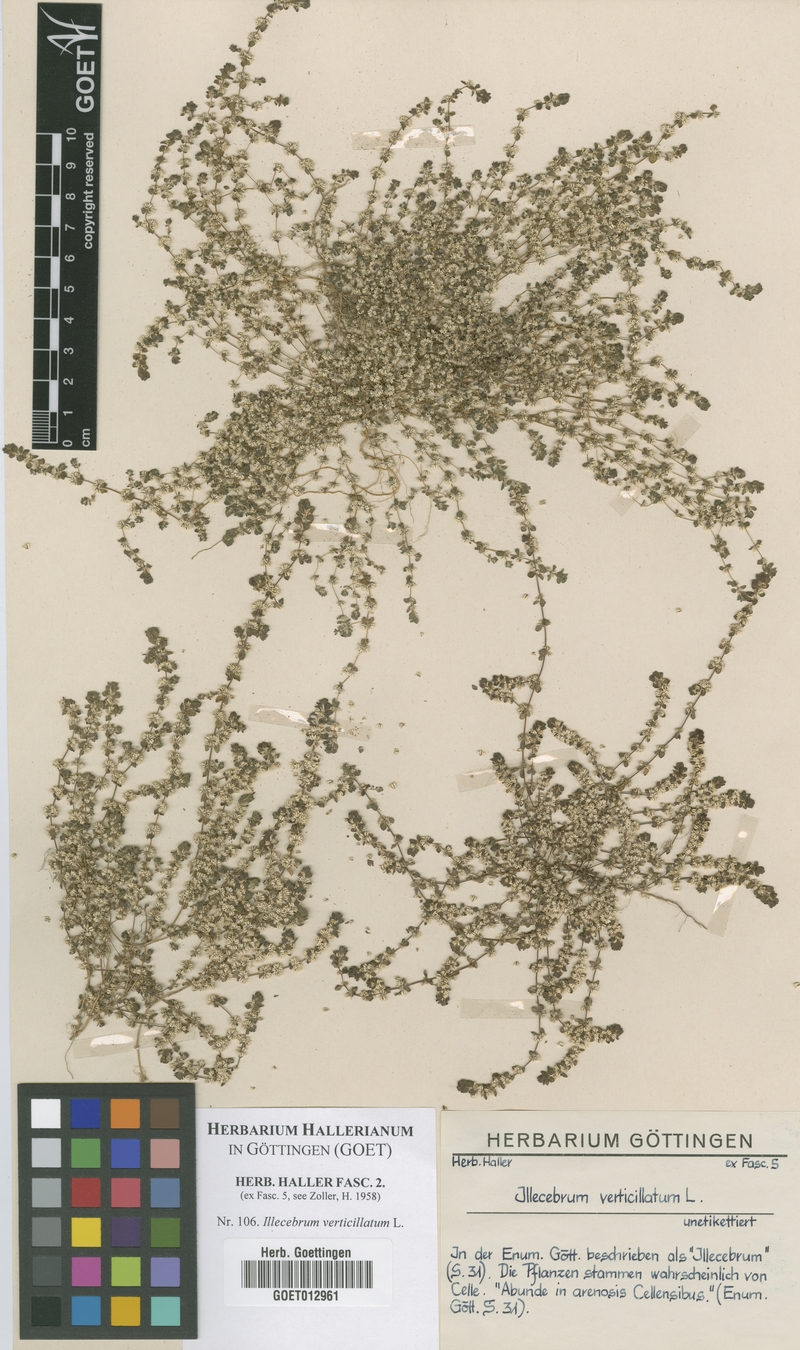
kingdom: Plantae
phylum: Tracheophyta
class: Magnoliopsida
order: Caryophyllales
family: Caryophyllaceae
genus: Illecebrum
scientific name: Illecebrum verticillatum
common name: Coral necklace
